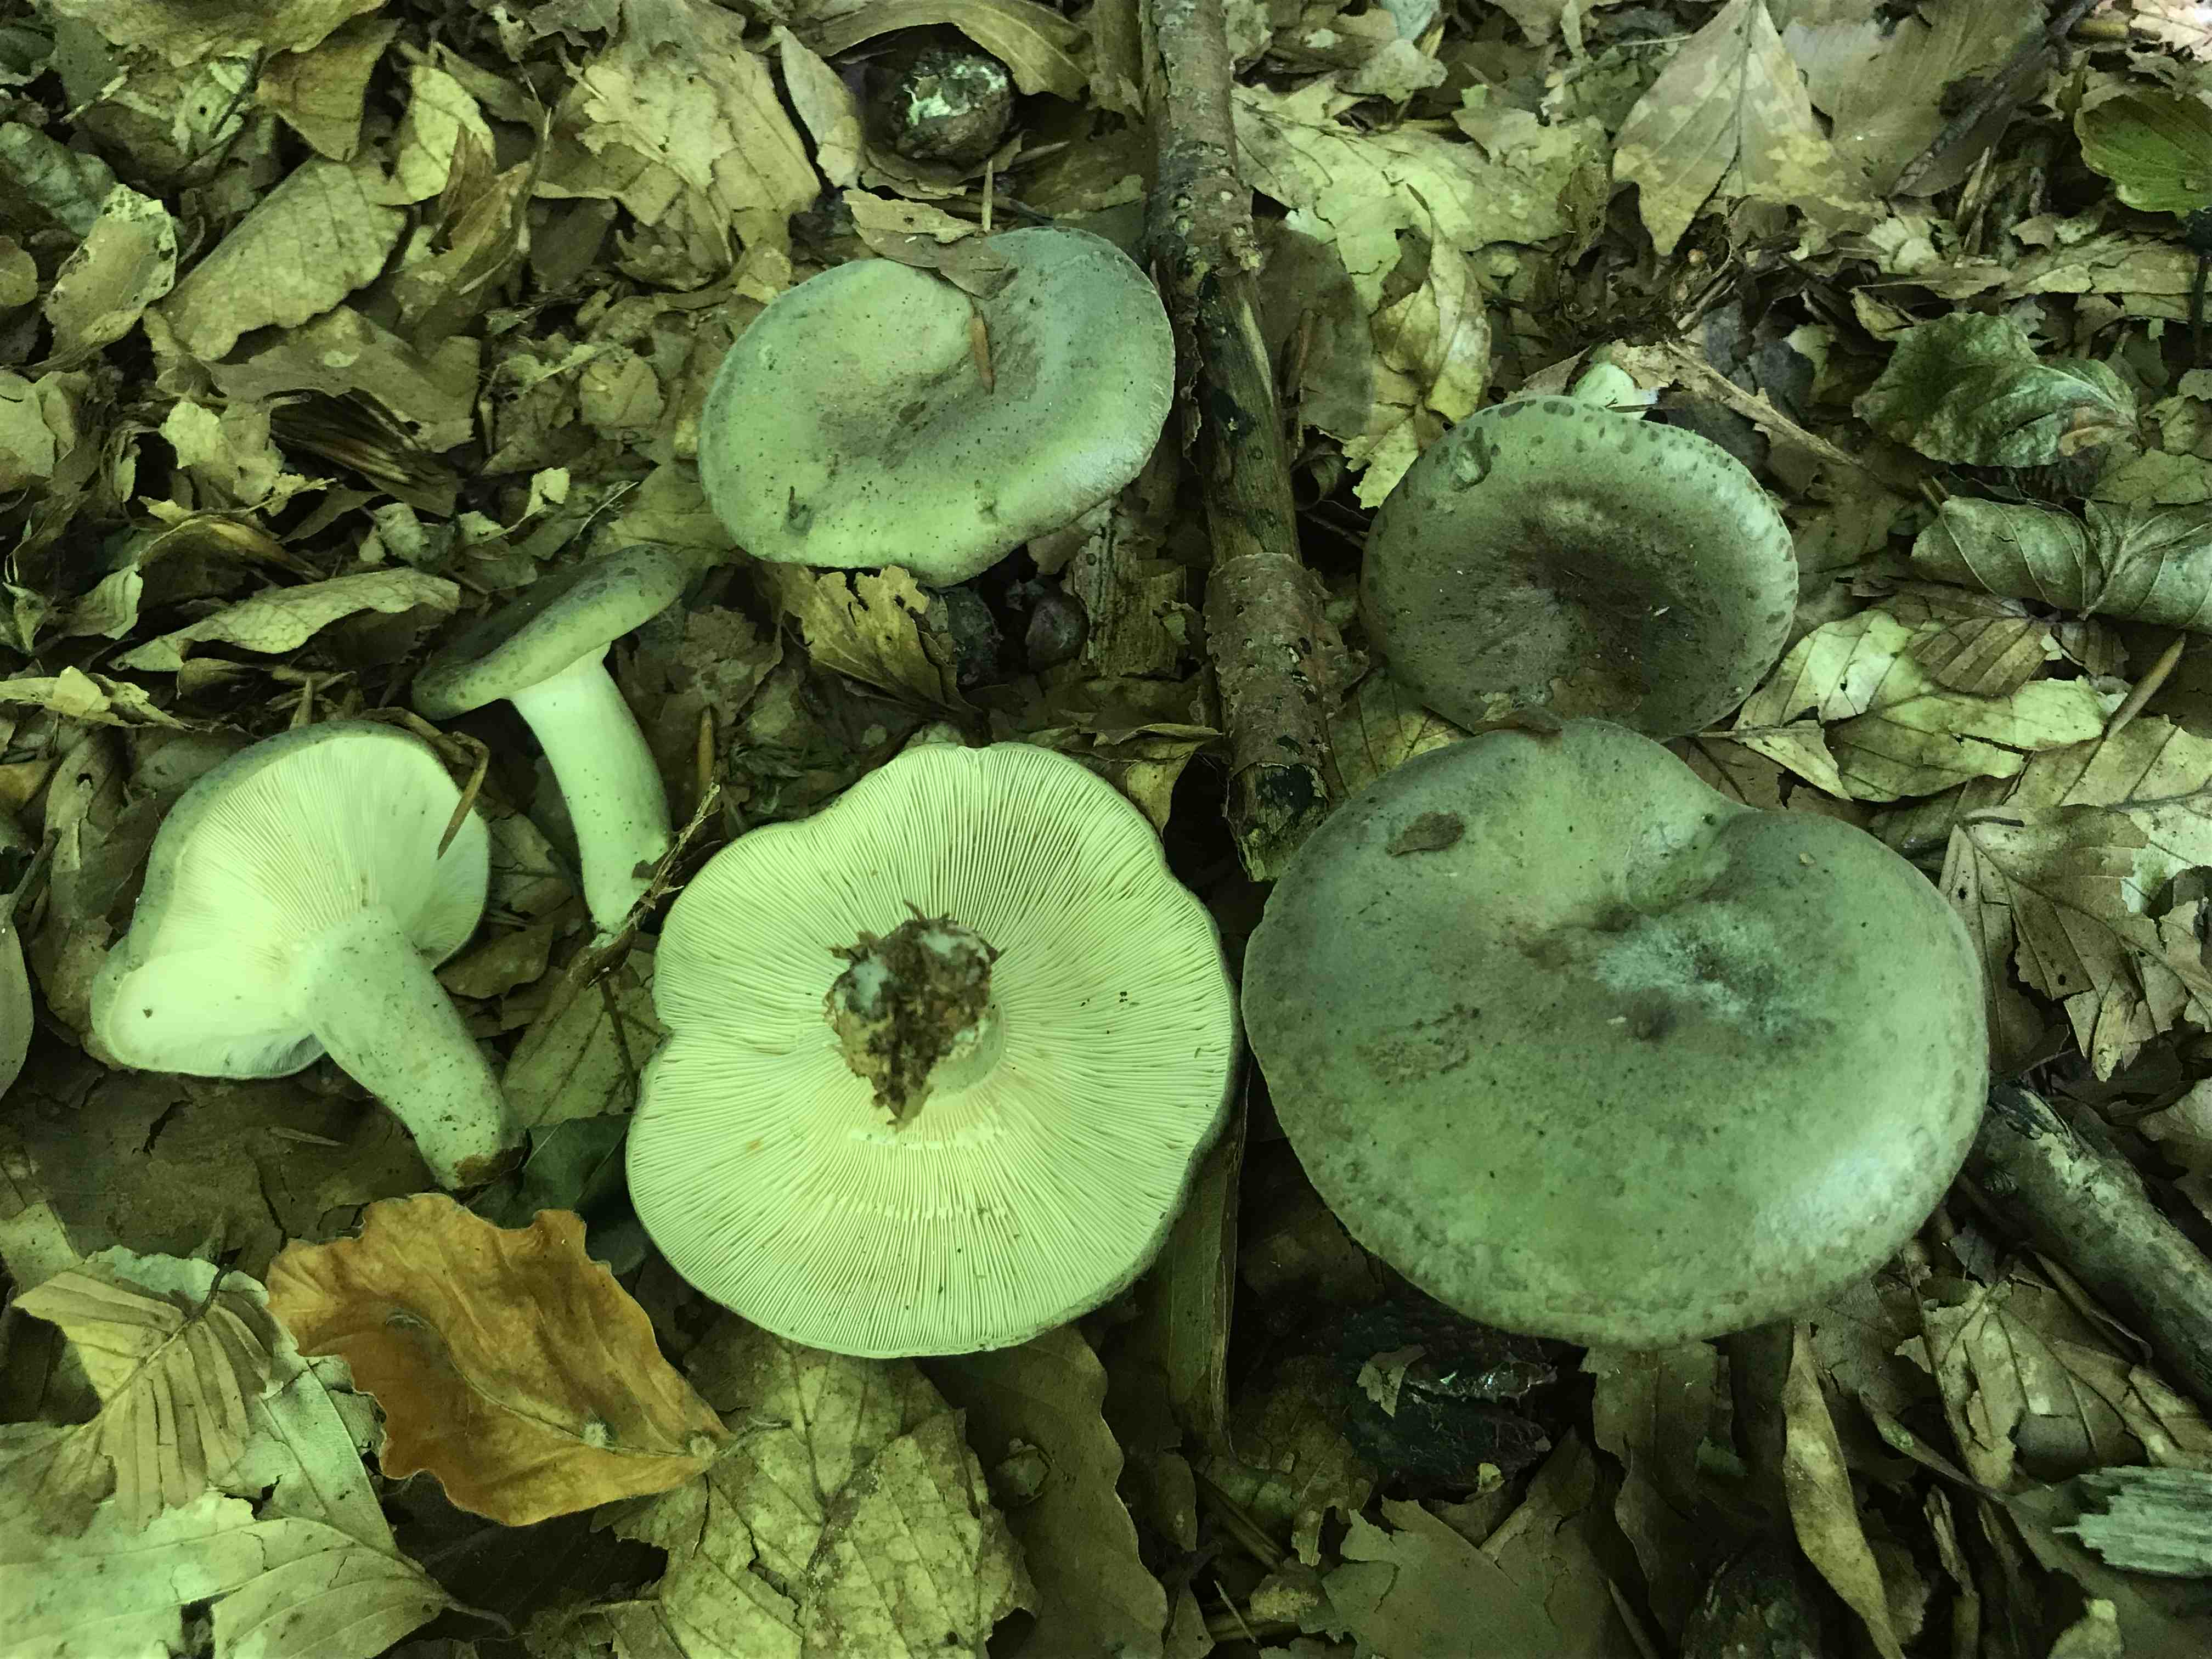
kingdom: Fungi
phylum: Basidiomycota
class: Agaricomycetes
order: Russulales
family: Russulaceae
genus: Lactarius
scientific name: Lactarius blennius
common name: dråbeplettet mælkehat
